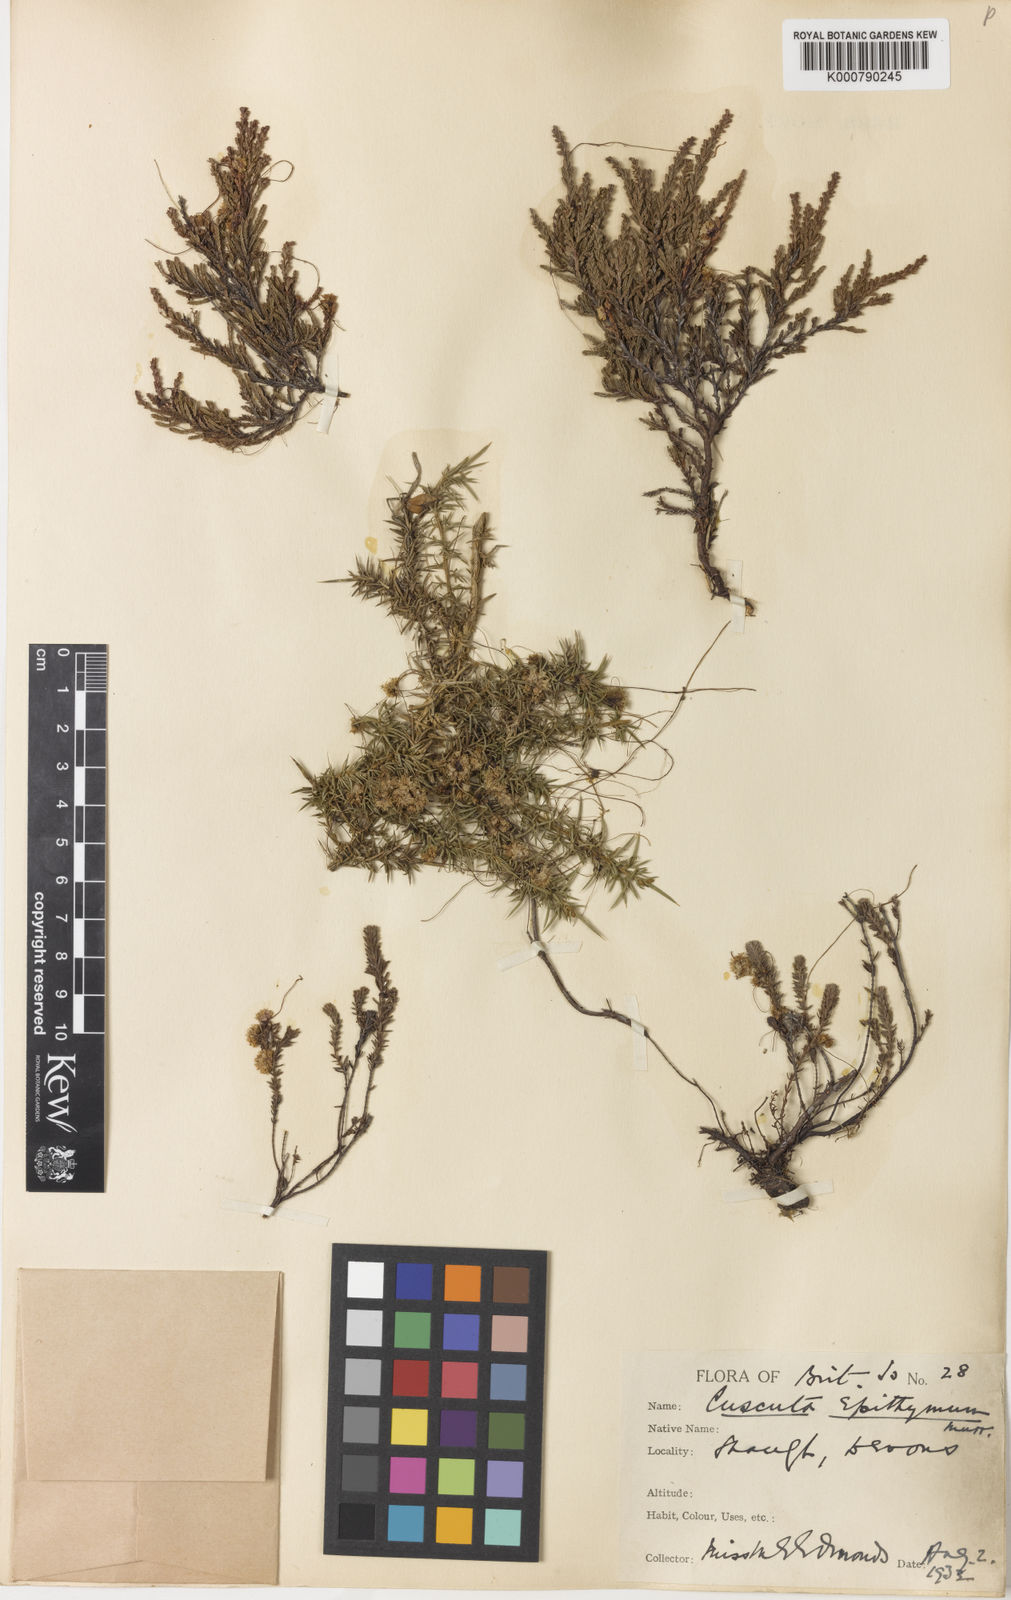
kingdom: Plantae
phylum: Tracheophyta
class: Magnoliopsida
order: Solanales
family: Convolvulaceae
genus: Cuscuta
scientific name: Cuscuta epithymum
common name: Clover dodder
